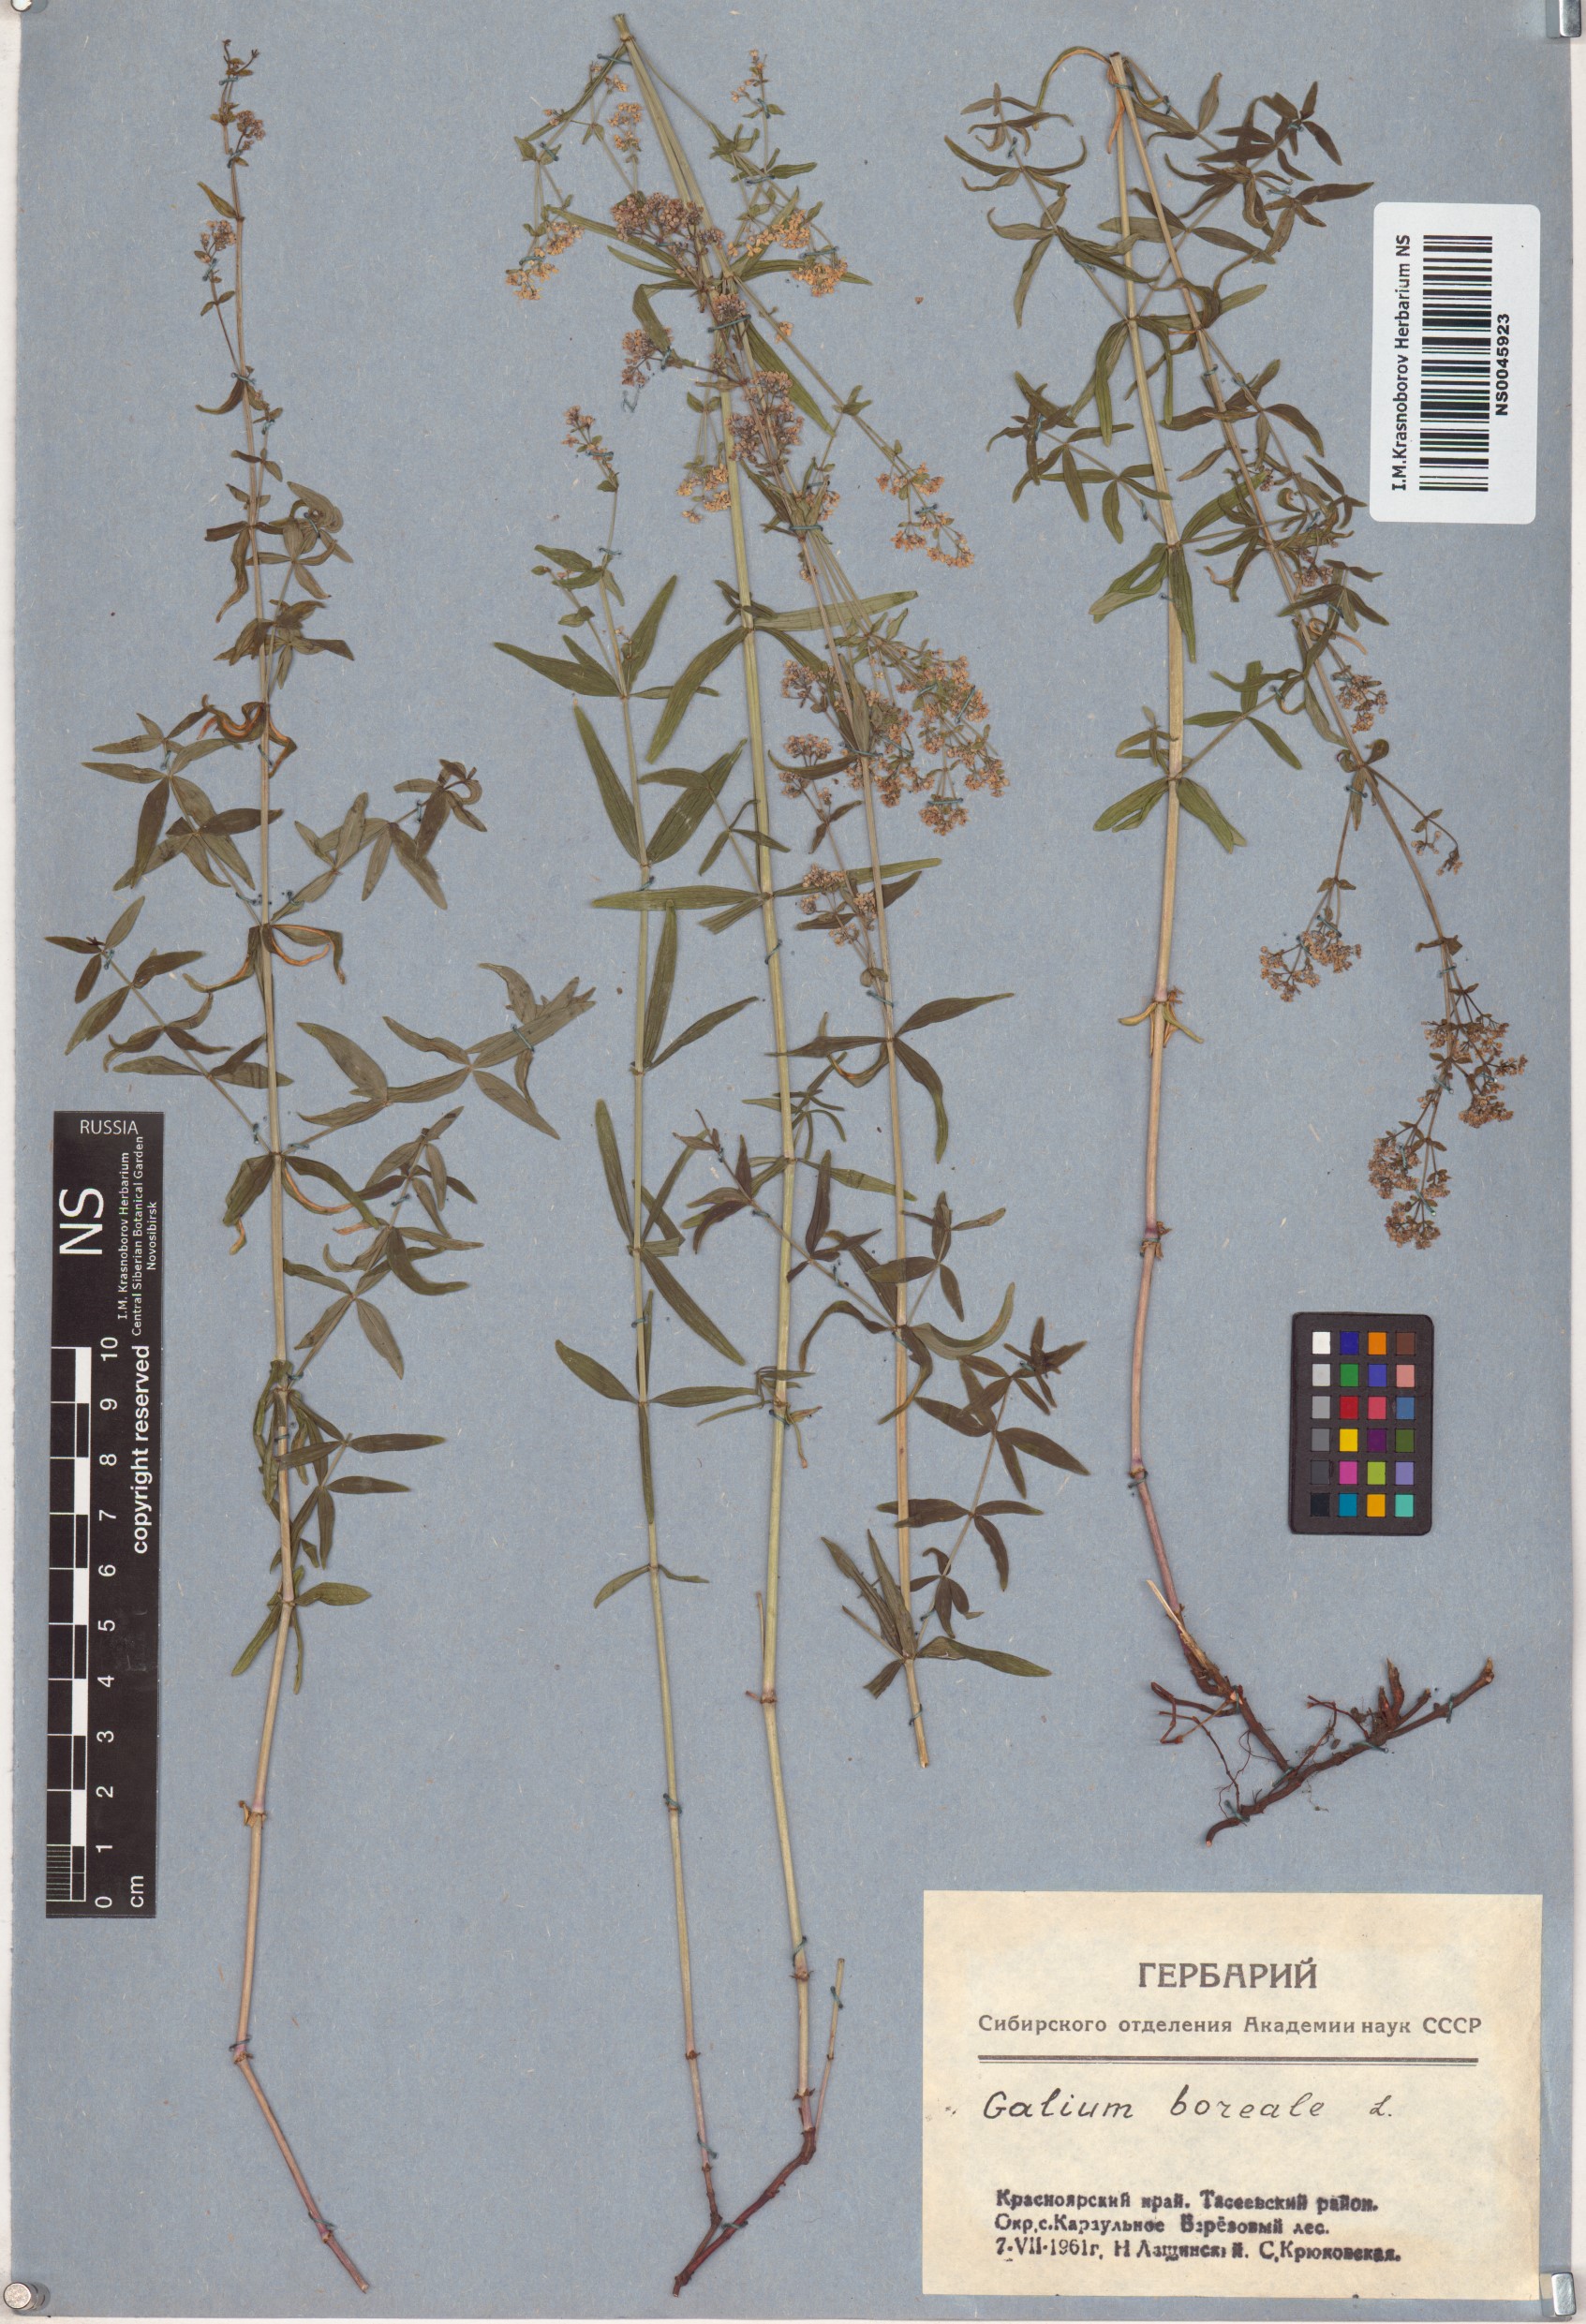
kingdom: Plantae
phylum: Tracheophyta
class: Magnoliopsida
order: Gentianales
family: Rubiaceae
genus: Galium
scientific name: Galium boreale
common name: Northern bedstraw
